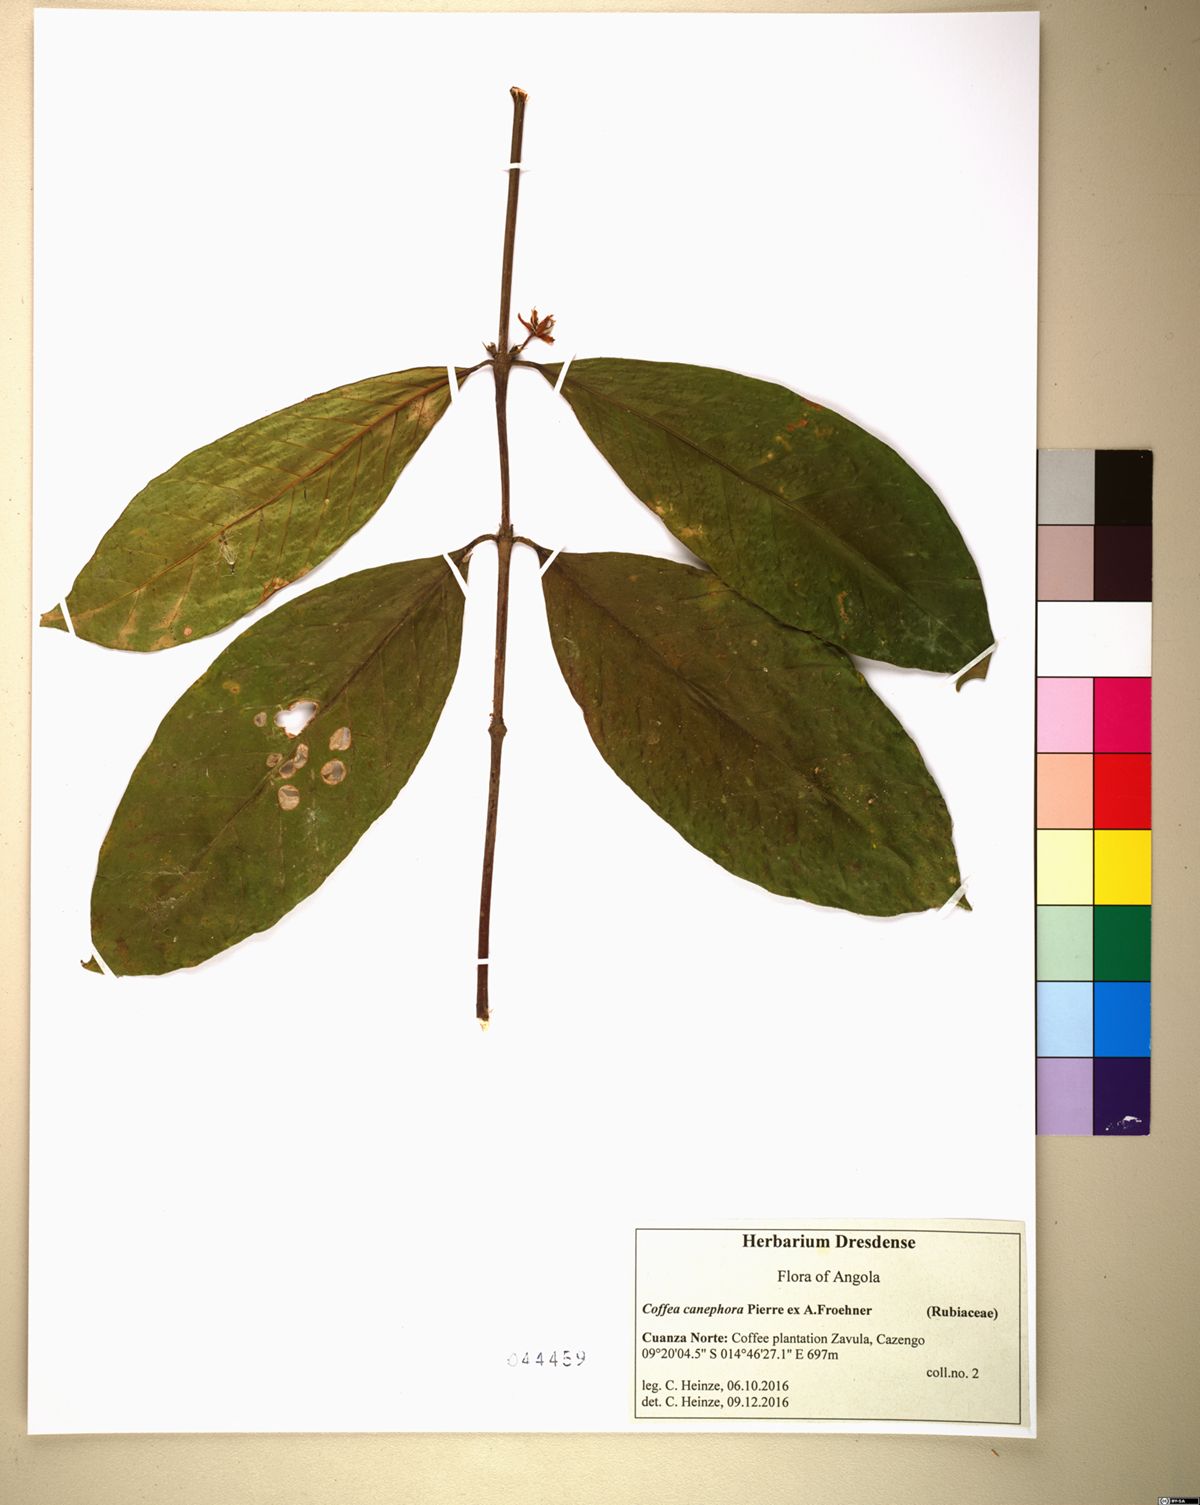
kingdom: Plantae
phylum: Tracheophyta
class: Magnoliopsida
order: Gentianales
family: Rubiaceae
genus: Coffea
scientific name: Coffea canephora
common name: Robusta coffee
